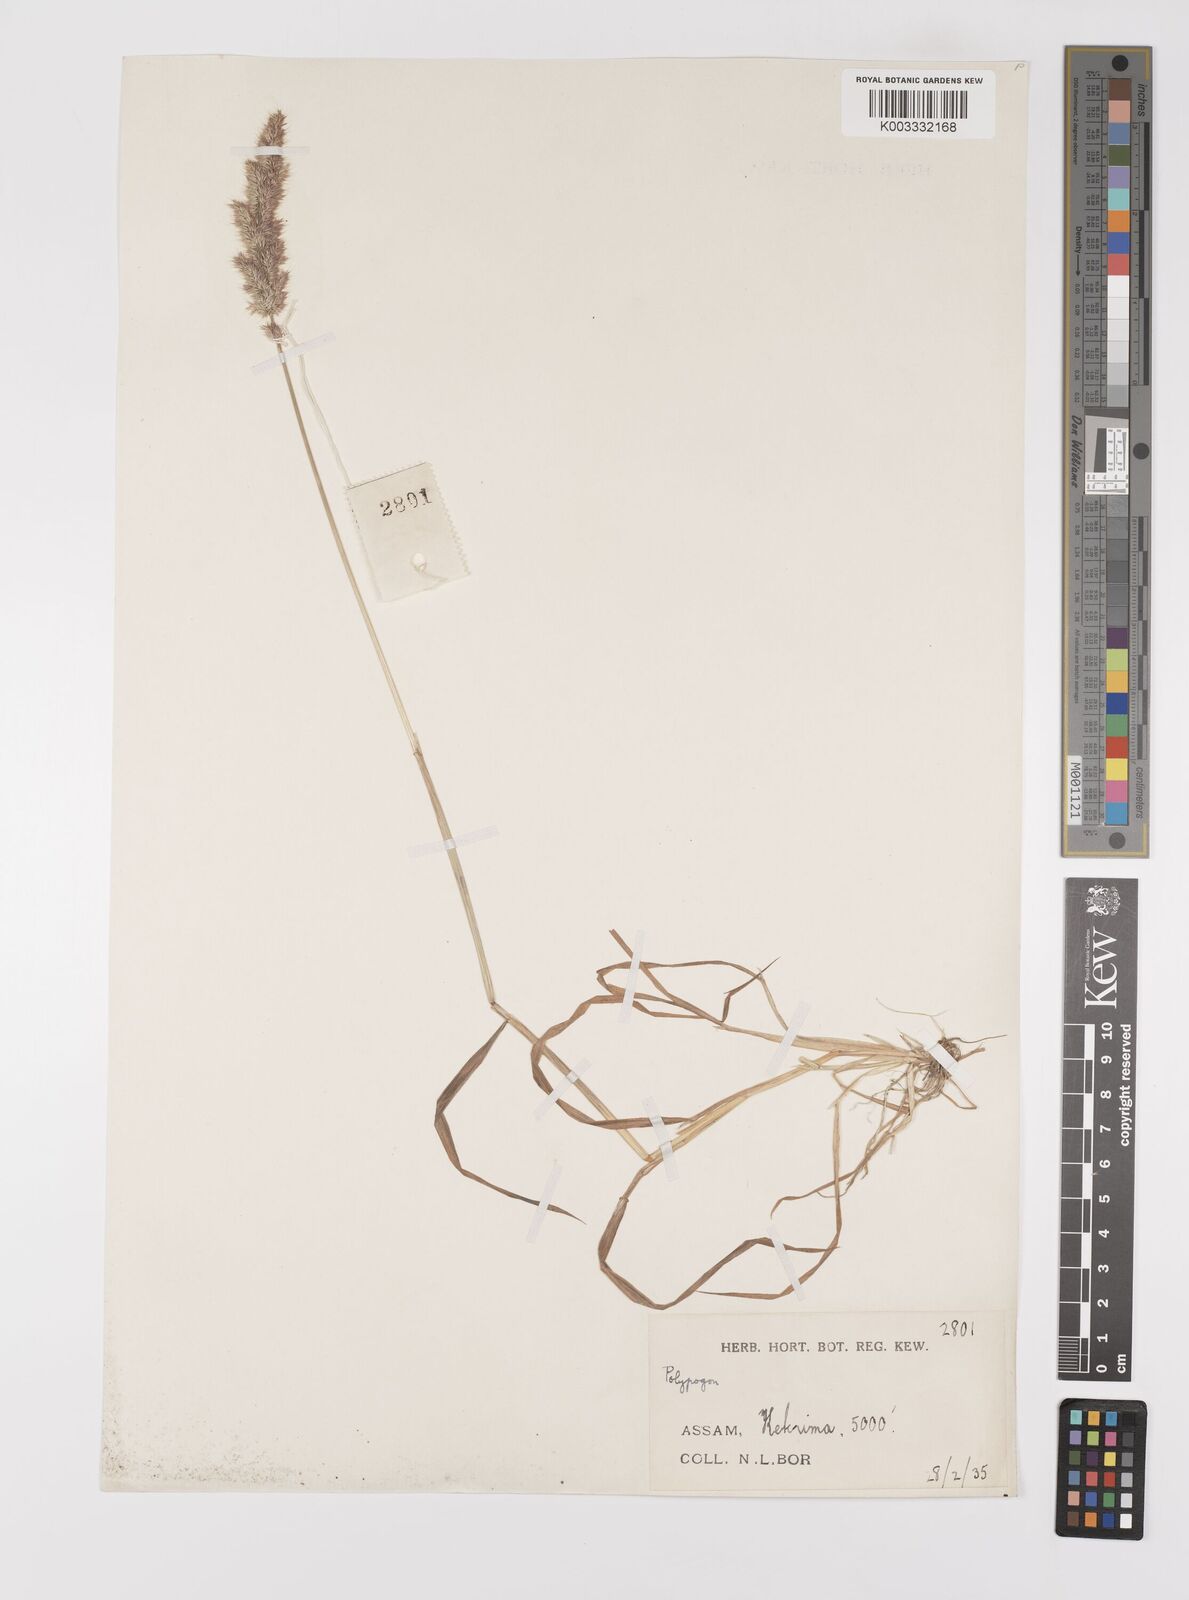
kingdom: Plantae
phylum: Tracheophyta
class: Liliopsida
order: Poales
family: Poaceae
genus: Polypogon
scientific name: Polypogon fugax
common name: Asia minor bluegrass
